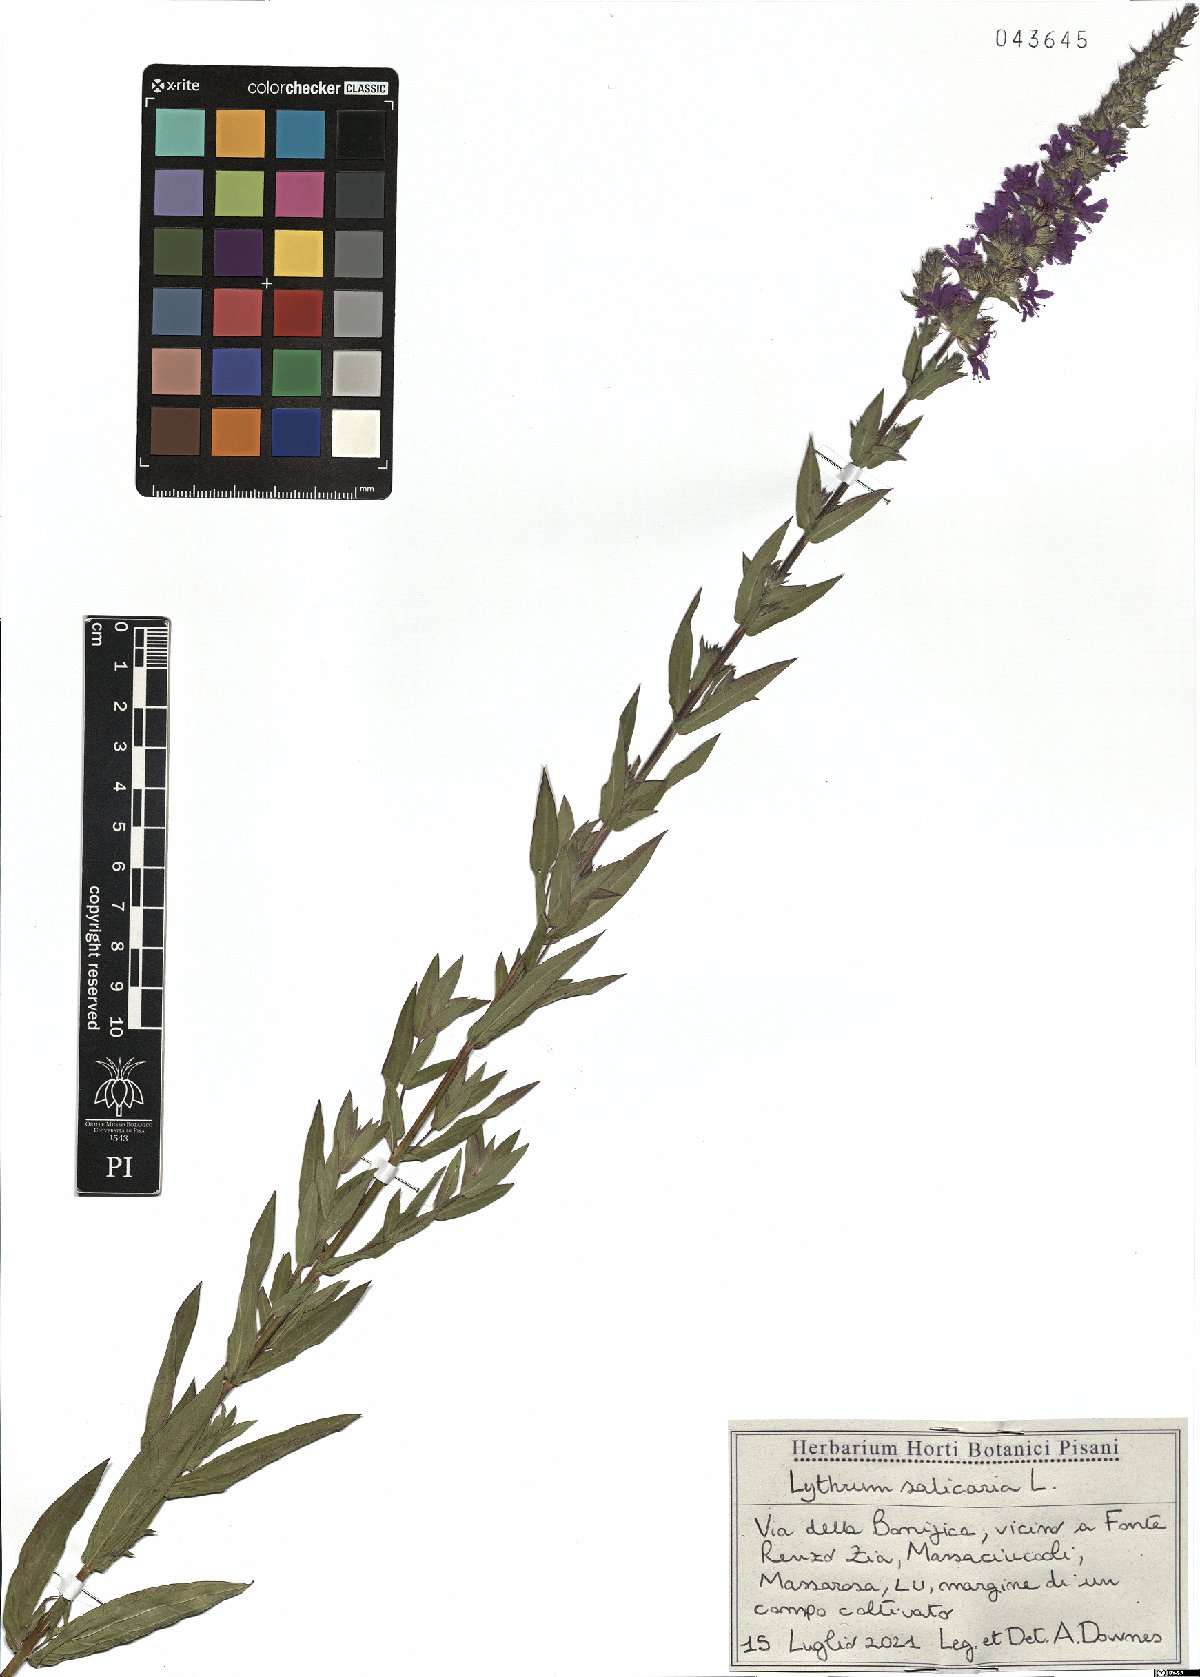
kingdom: Plantae
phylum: Tracheophyta
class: Magnoliopsida
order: Myrtales
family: Lythraceae
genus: Lythrum
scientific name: Lythrum salicaria
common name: Purple loosestrife
